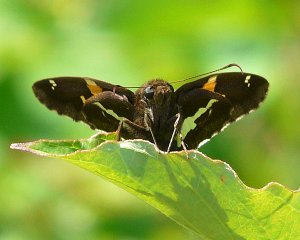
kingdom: Animalia
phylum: Arthropoda
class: Insecta
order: Lepidoptera
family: Hesperiidae
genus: Epargyreus
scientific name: Epargyreus clarus
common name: Silver-spotted Skipper
